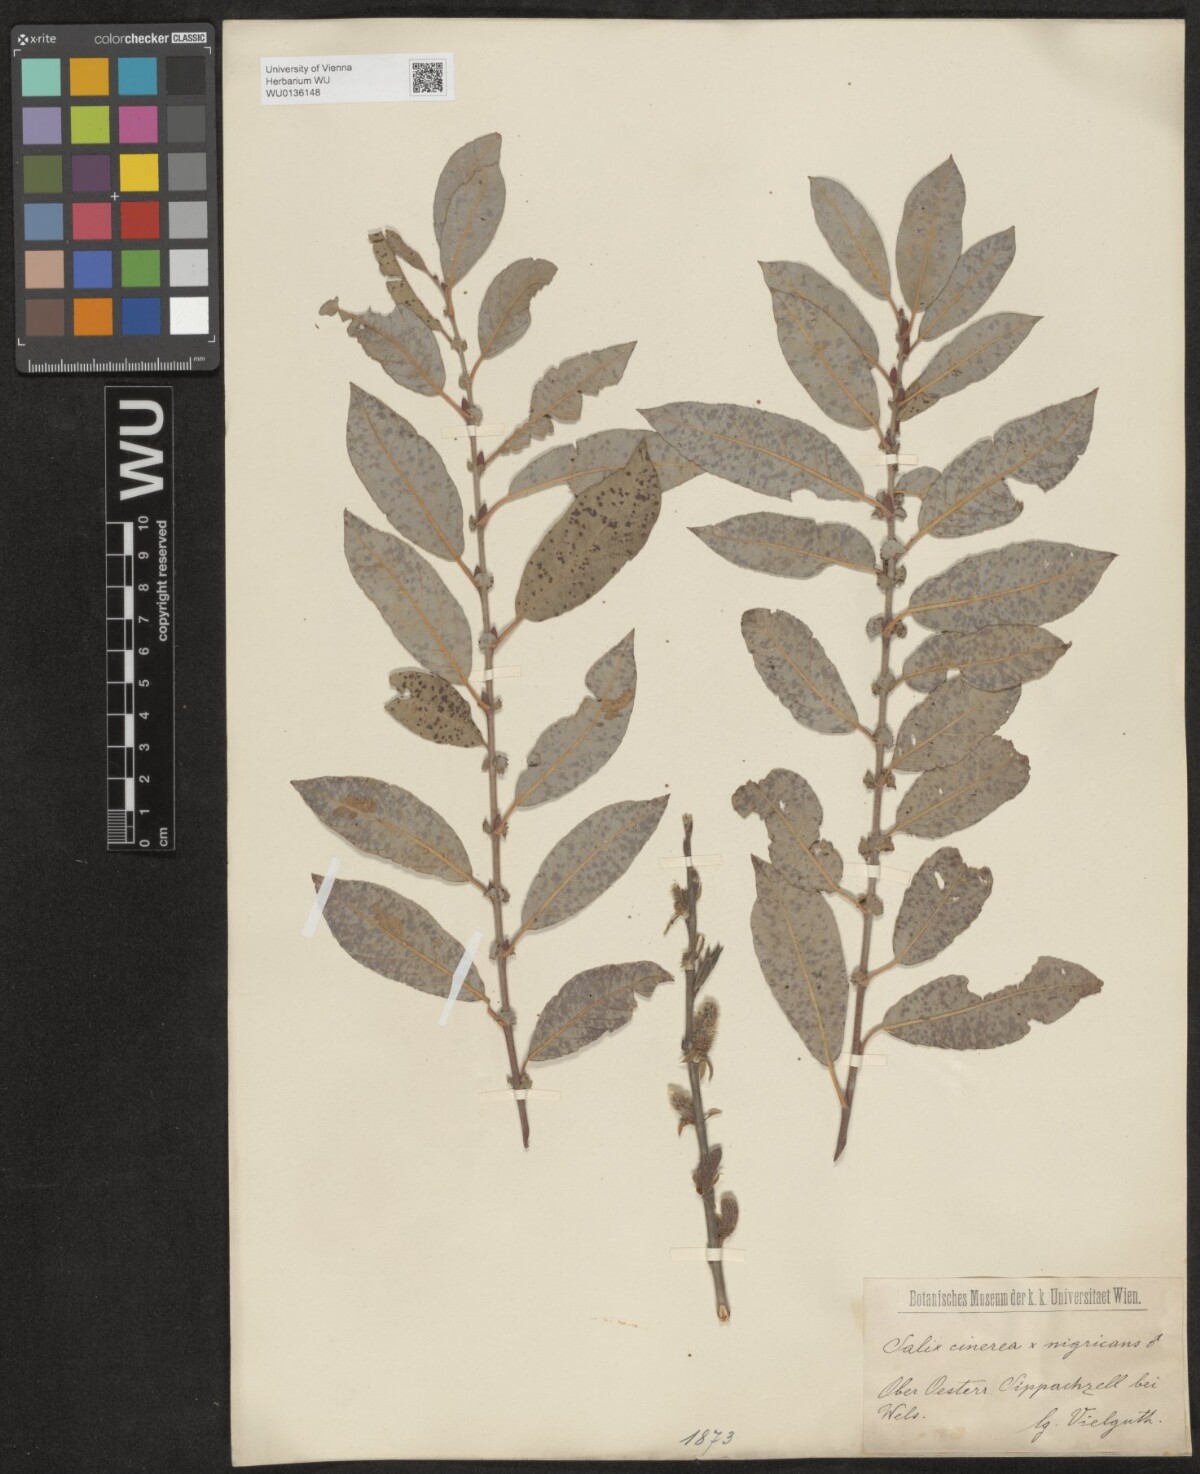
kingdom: Plantae
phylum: Tracheophyta
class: Magnoliopsida
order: Malpighiales
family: Salicaceae
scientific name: Salicaceae
